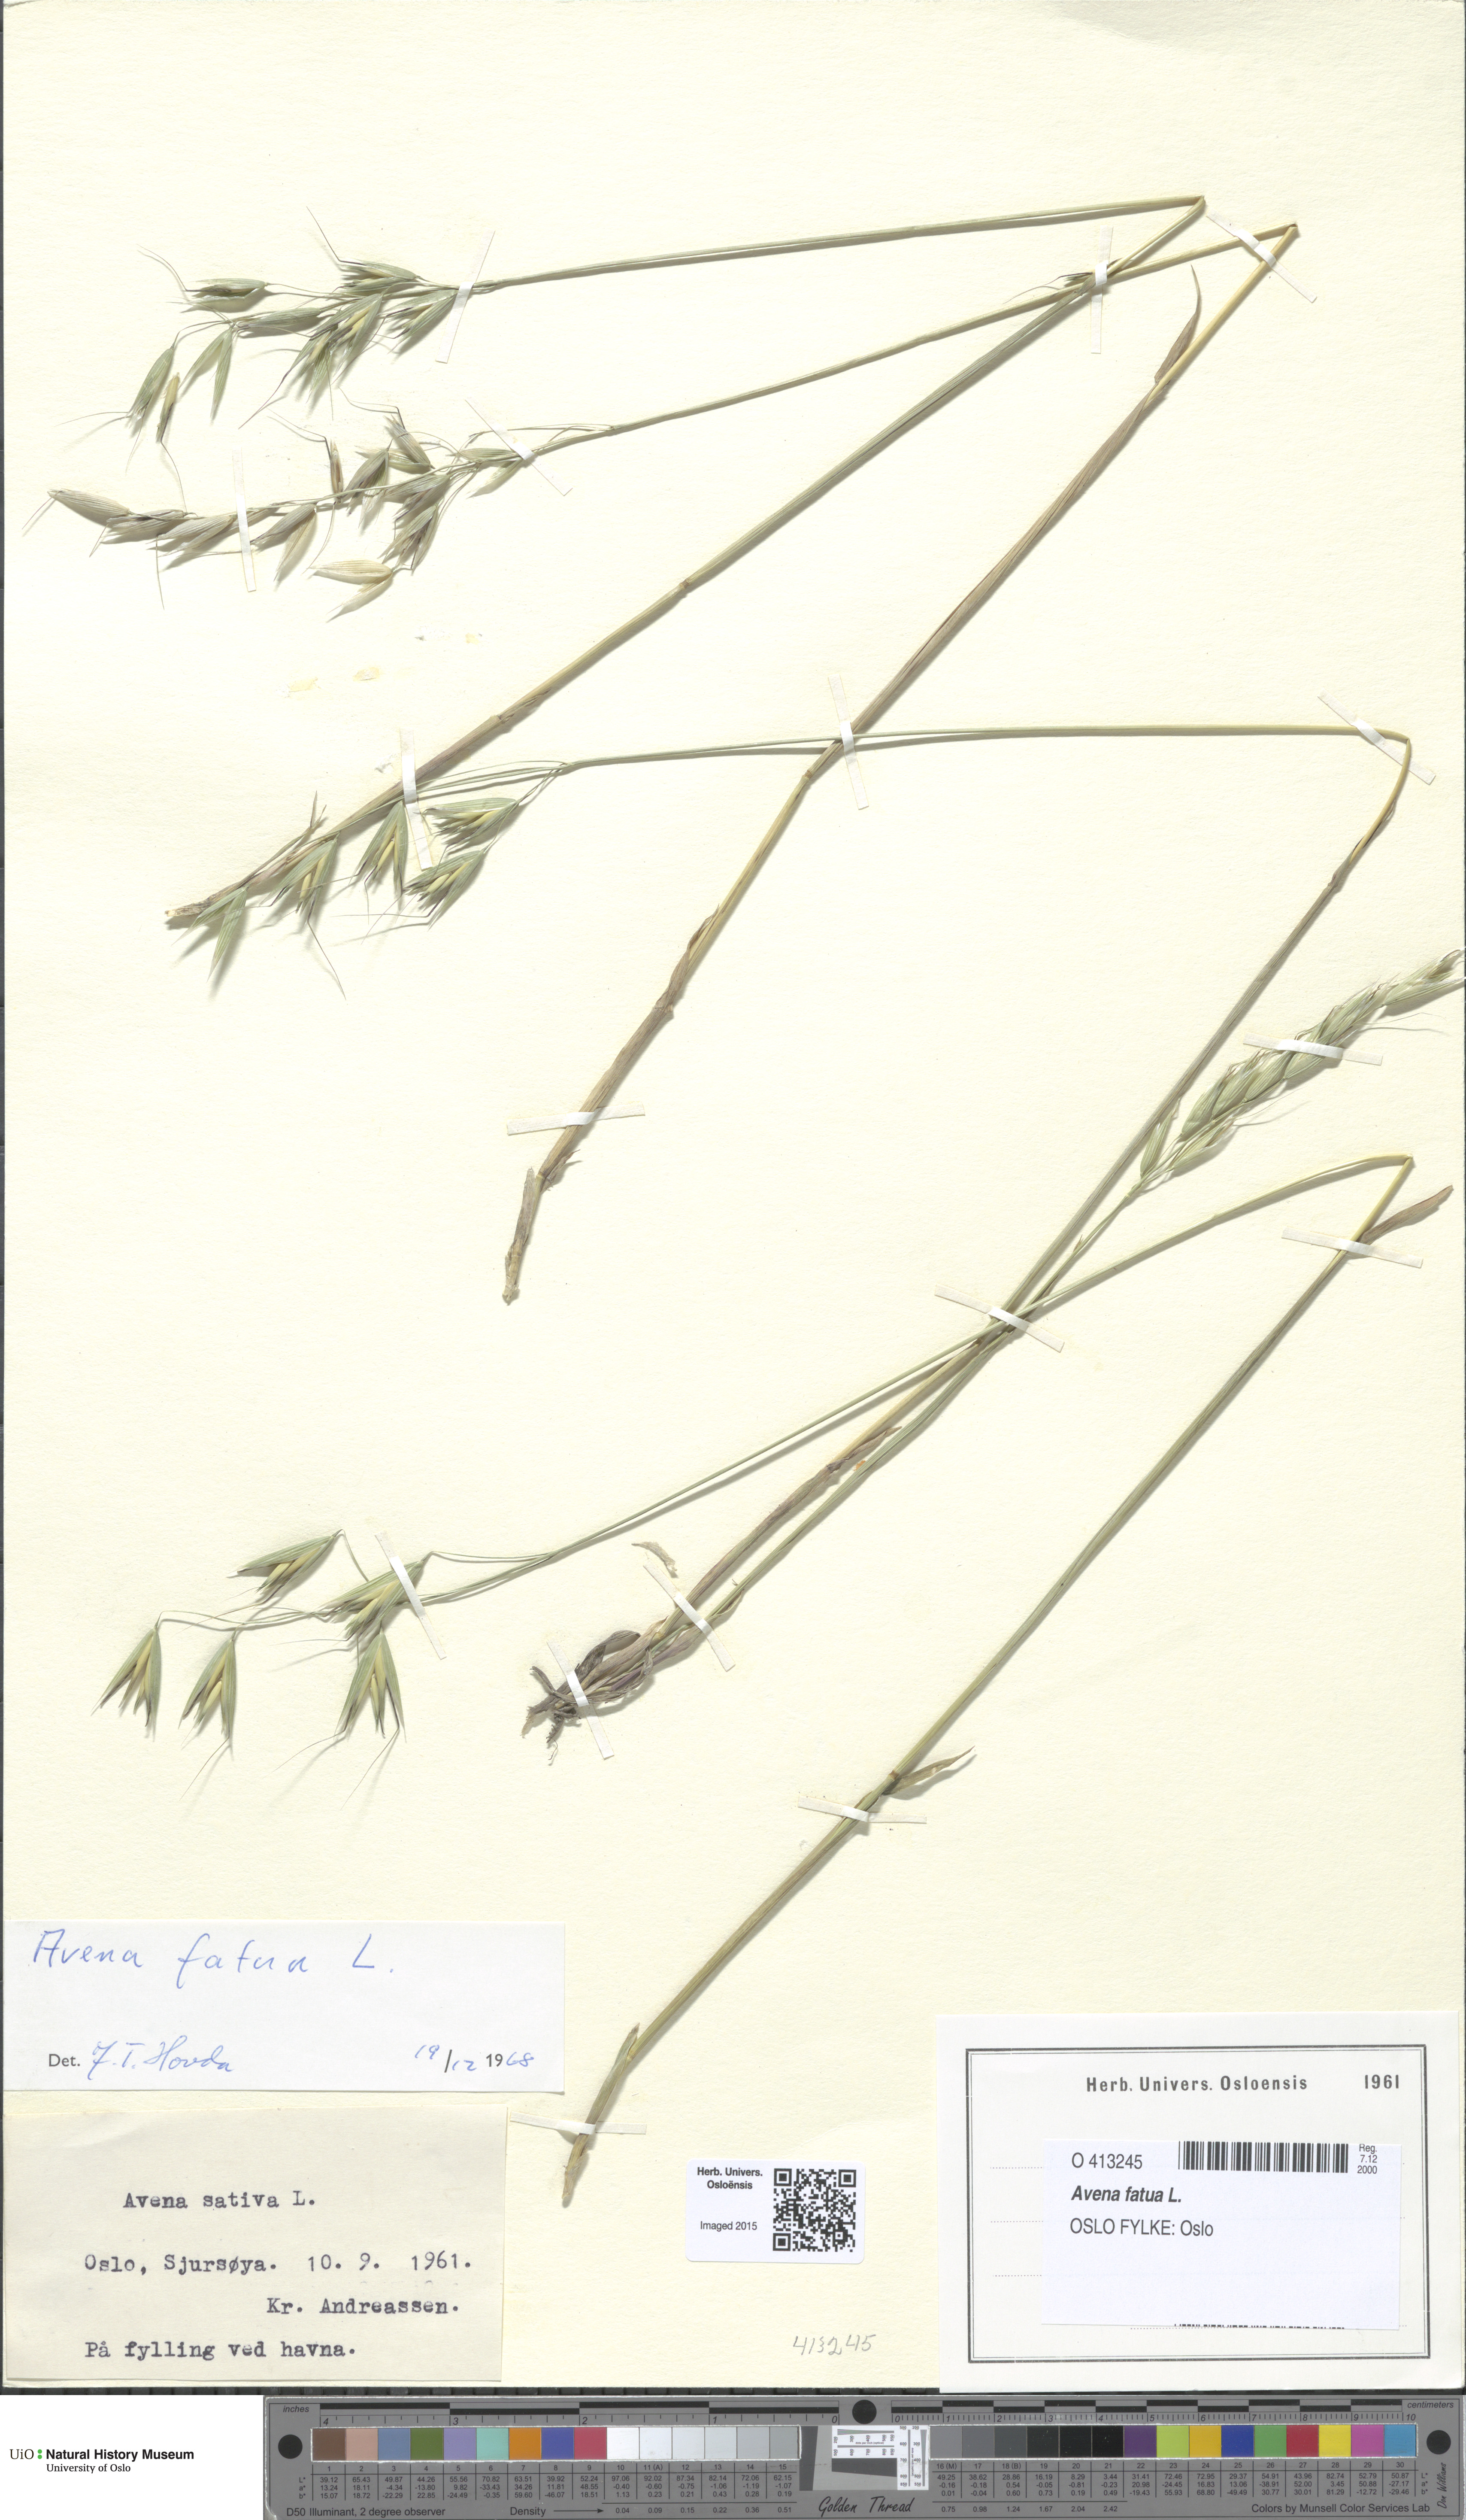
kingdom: Plantae
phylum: Tracheophyta
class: Liliopsida
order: Poales
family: Poaceae
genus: Avena
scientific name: Avena fatua
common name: Wild oat
